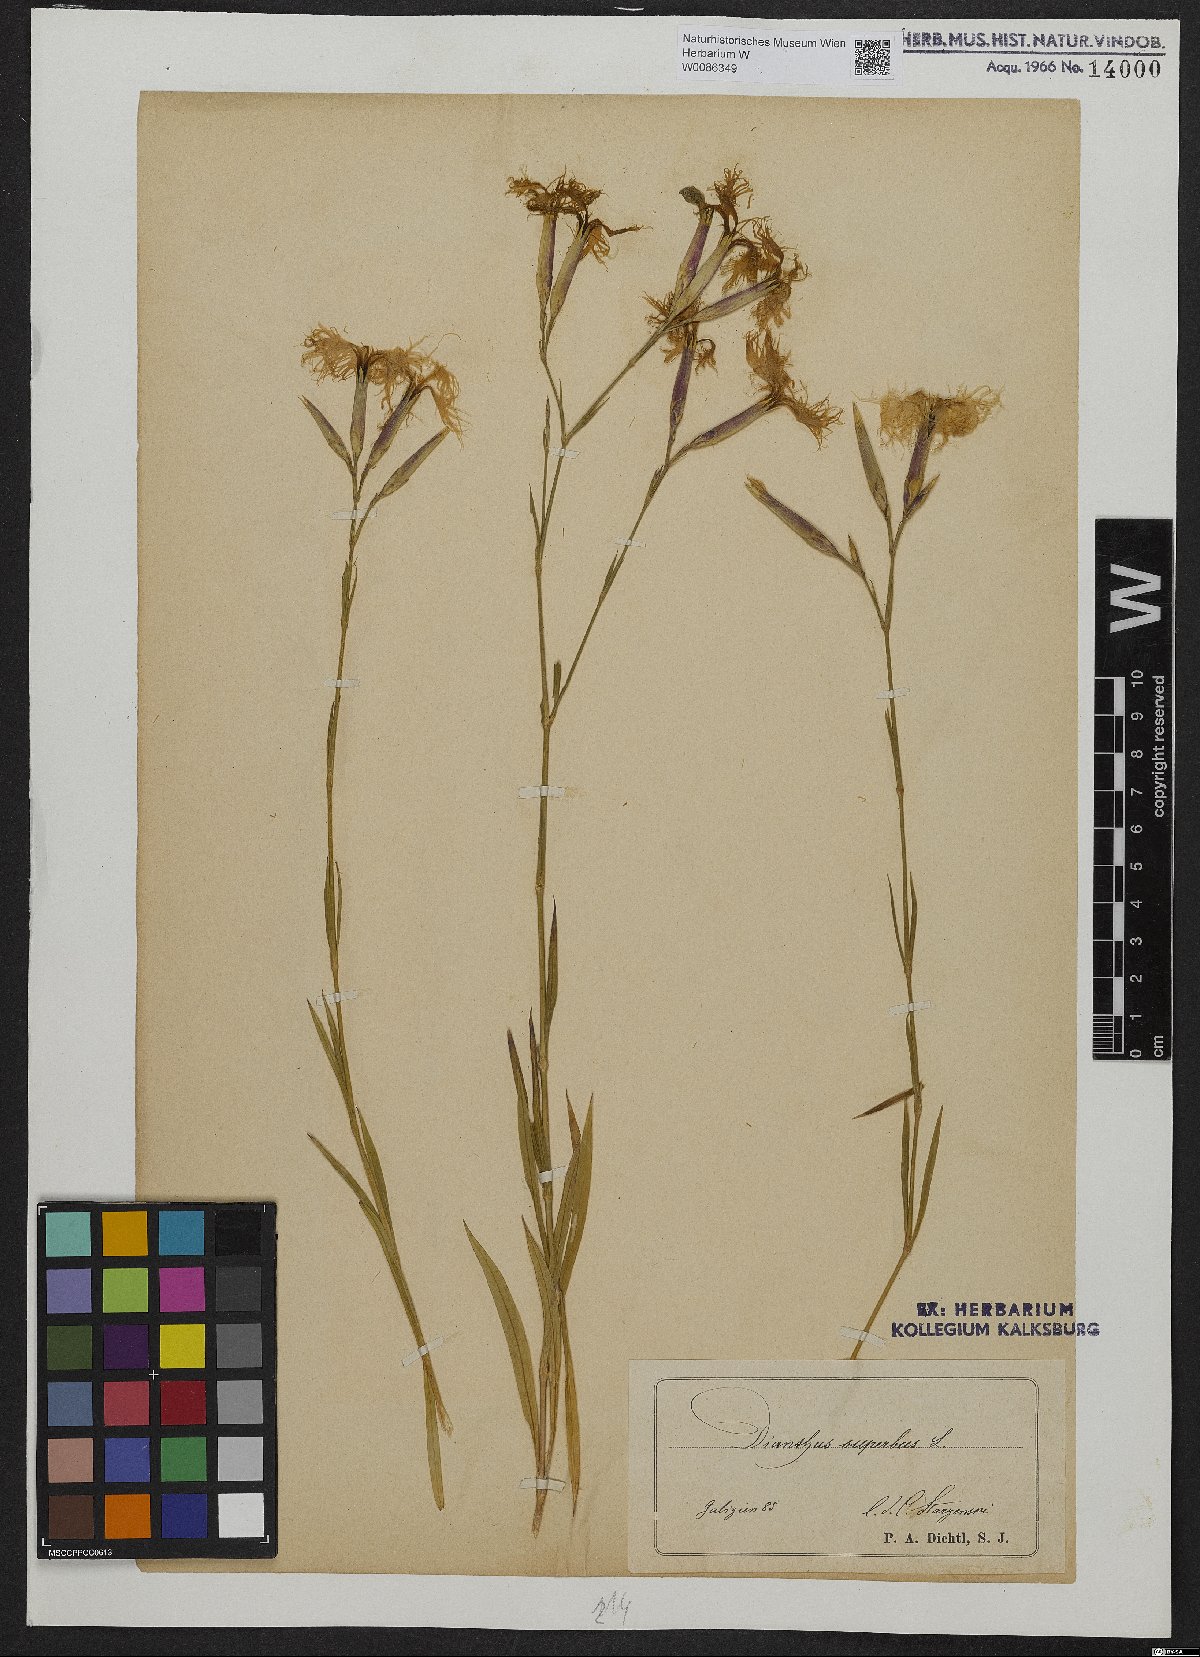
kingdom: Plantae
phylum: Tracheophyta
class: Magnoliopsida
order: Caryophyllales
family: Caryophyllaceae
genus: Dianthus
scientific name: Dianthus superbus
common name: Fringed pink
